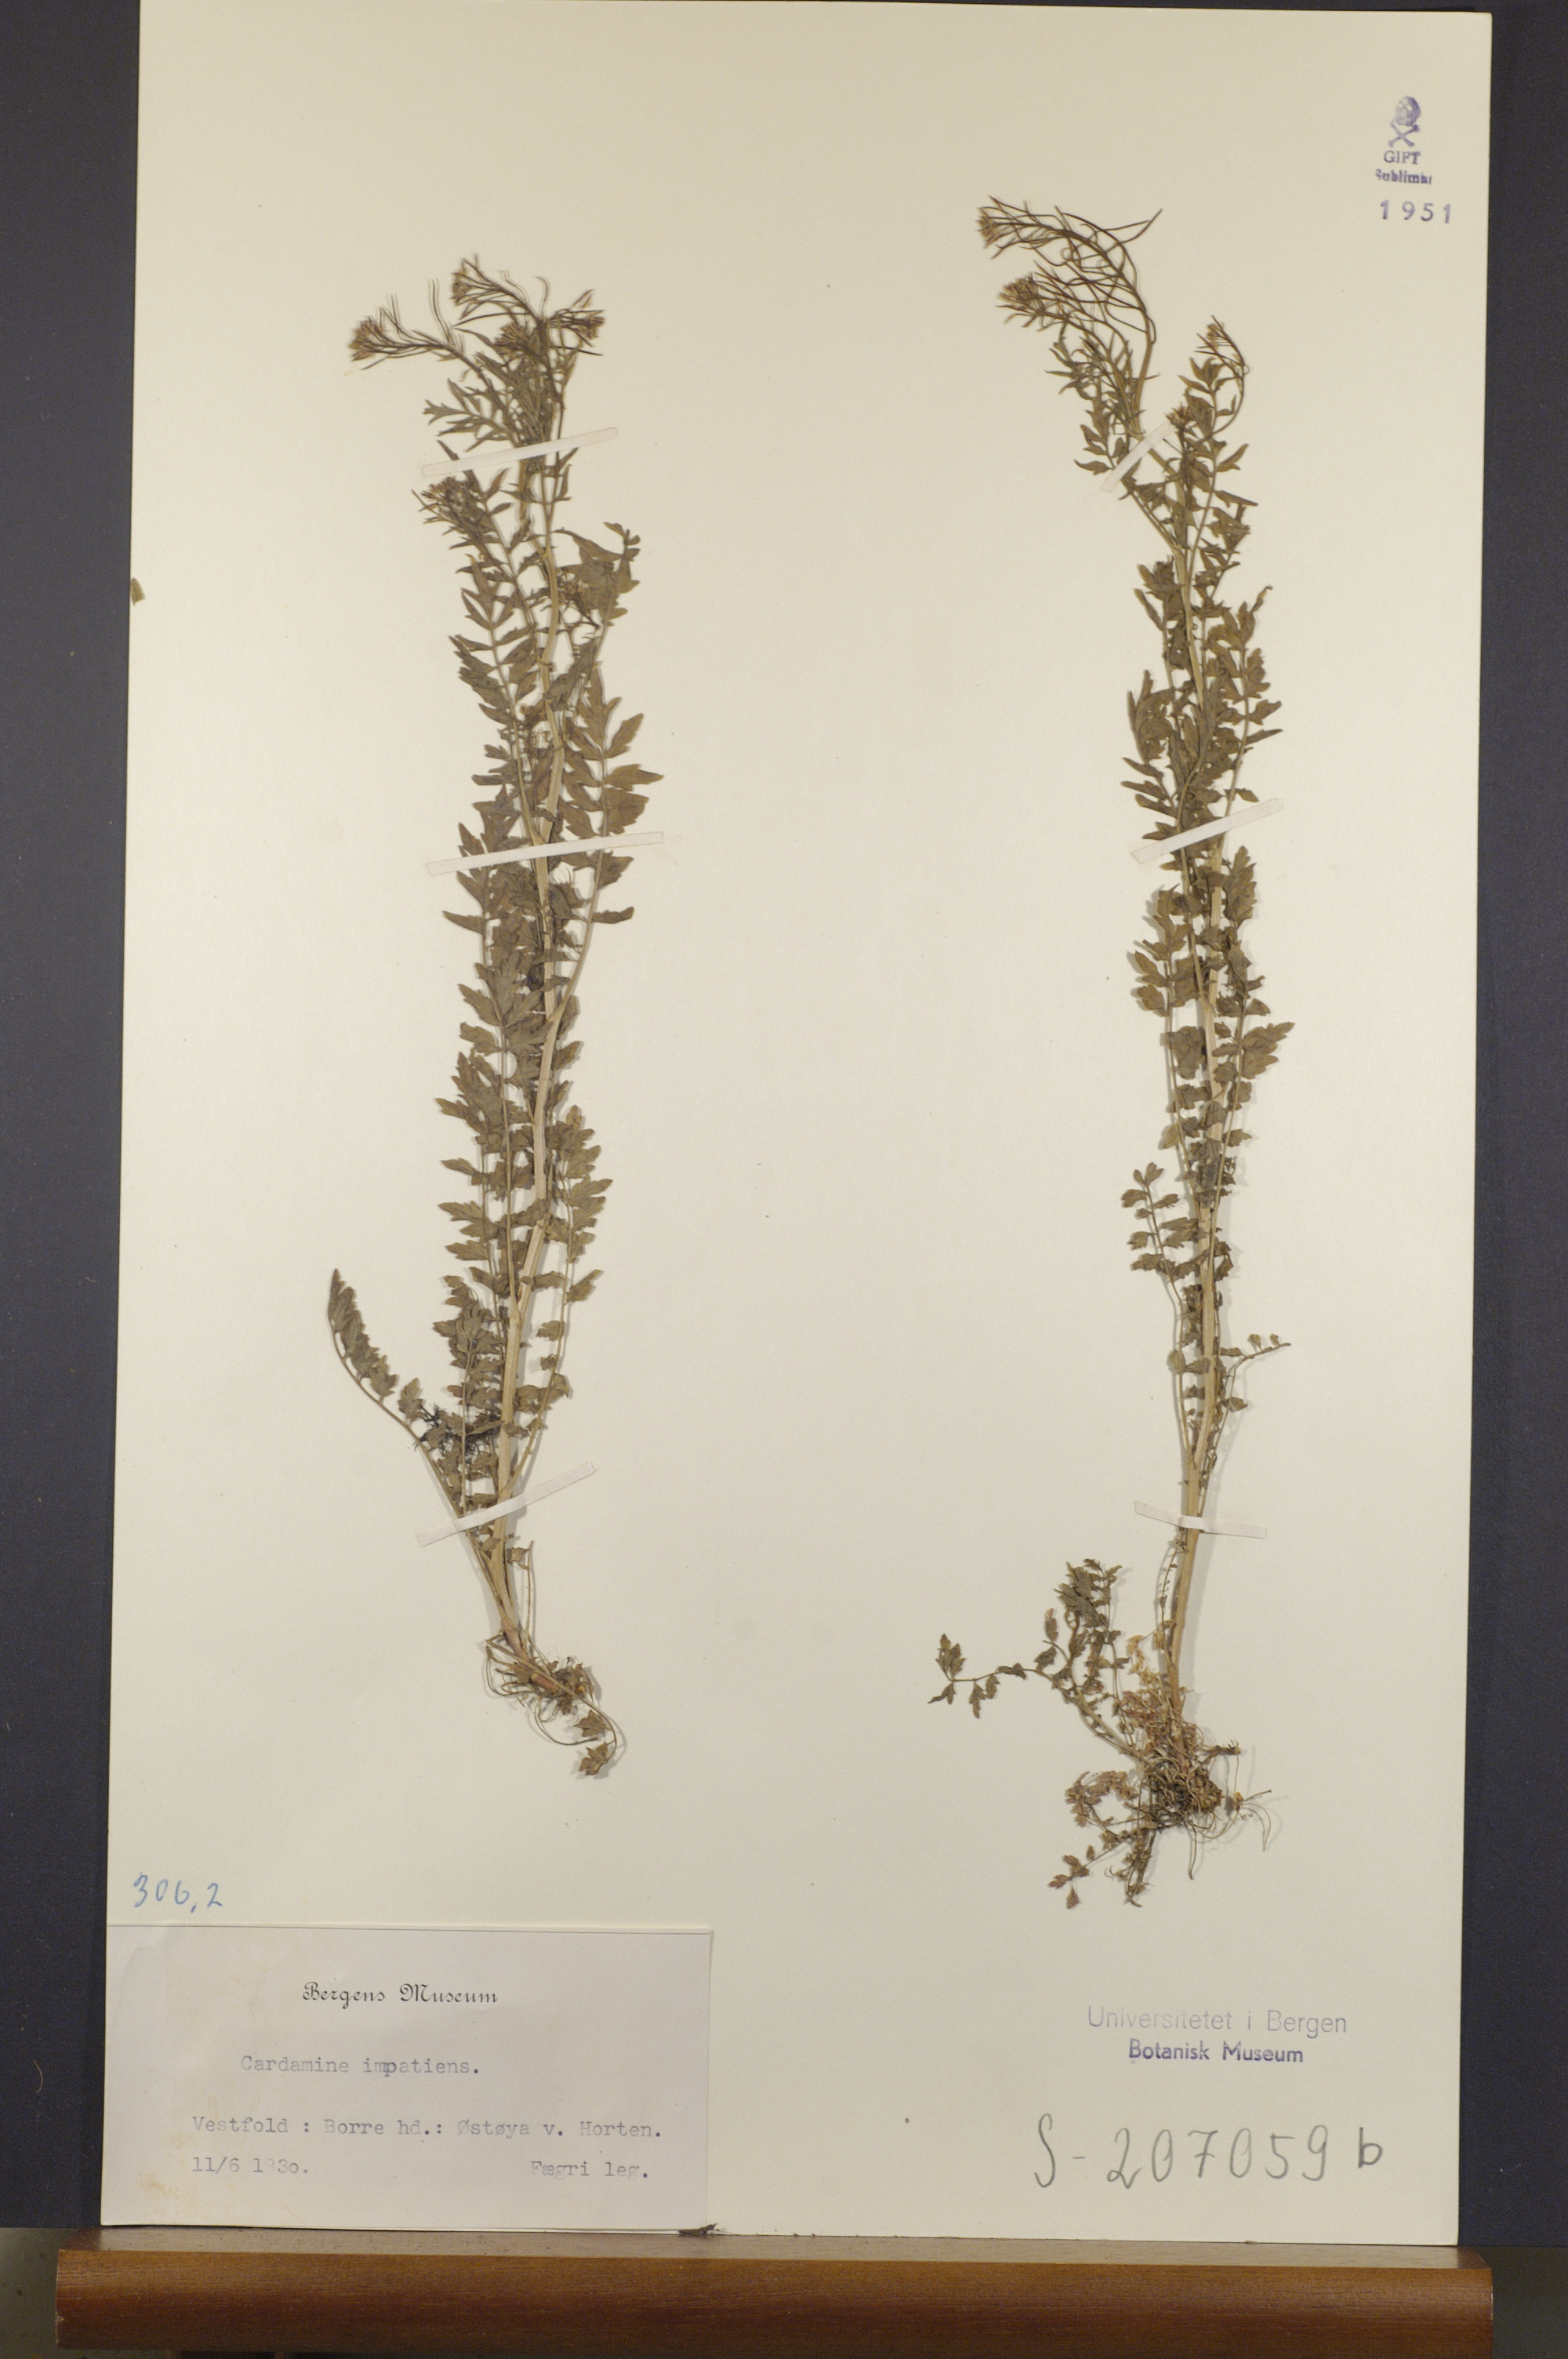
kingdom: Plantae
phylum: Tracheophyta
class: Magnoliopsida
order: Brassicales
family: Brassicaceae
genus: Cardamine
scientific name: Cardamine impatiens
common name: Narrow-leaved bitter-cress
